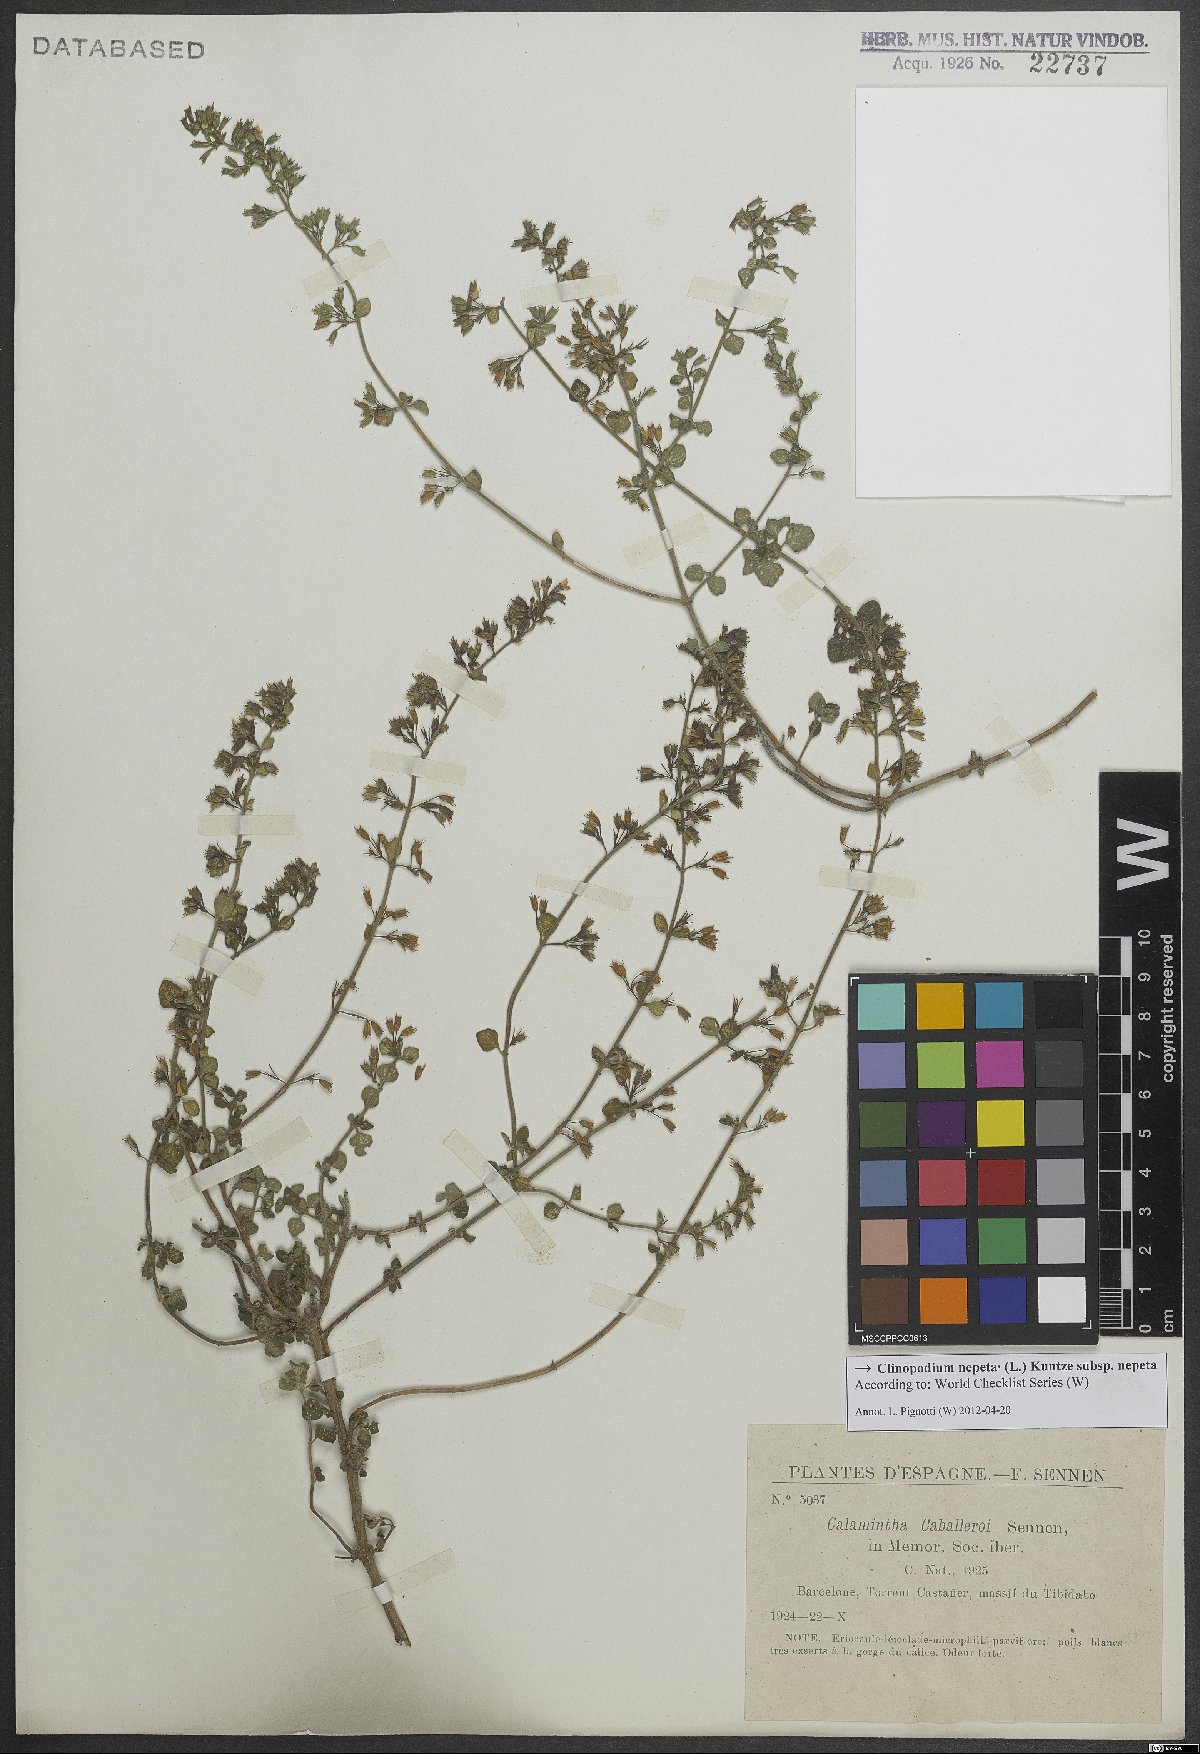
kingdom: Plantae
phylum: Tracheophyta
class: Magnoliopsida
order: Lamiales
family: Lamiaceae
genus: Clinopodium
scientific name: Clinopodium nepeta
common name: Lesser calamint
